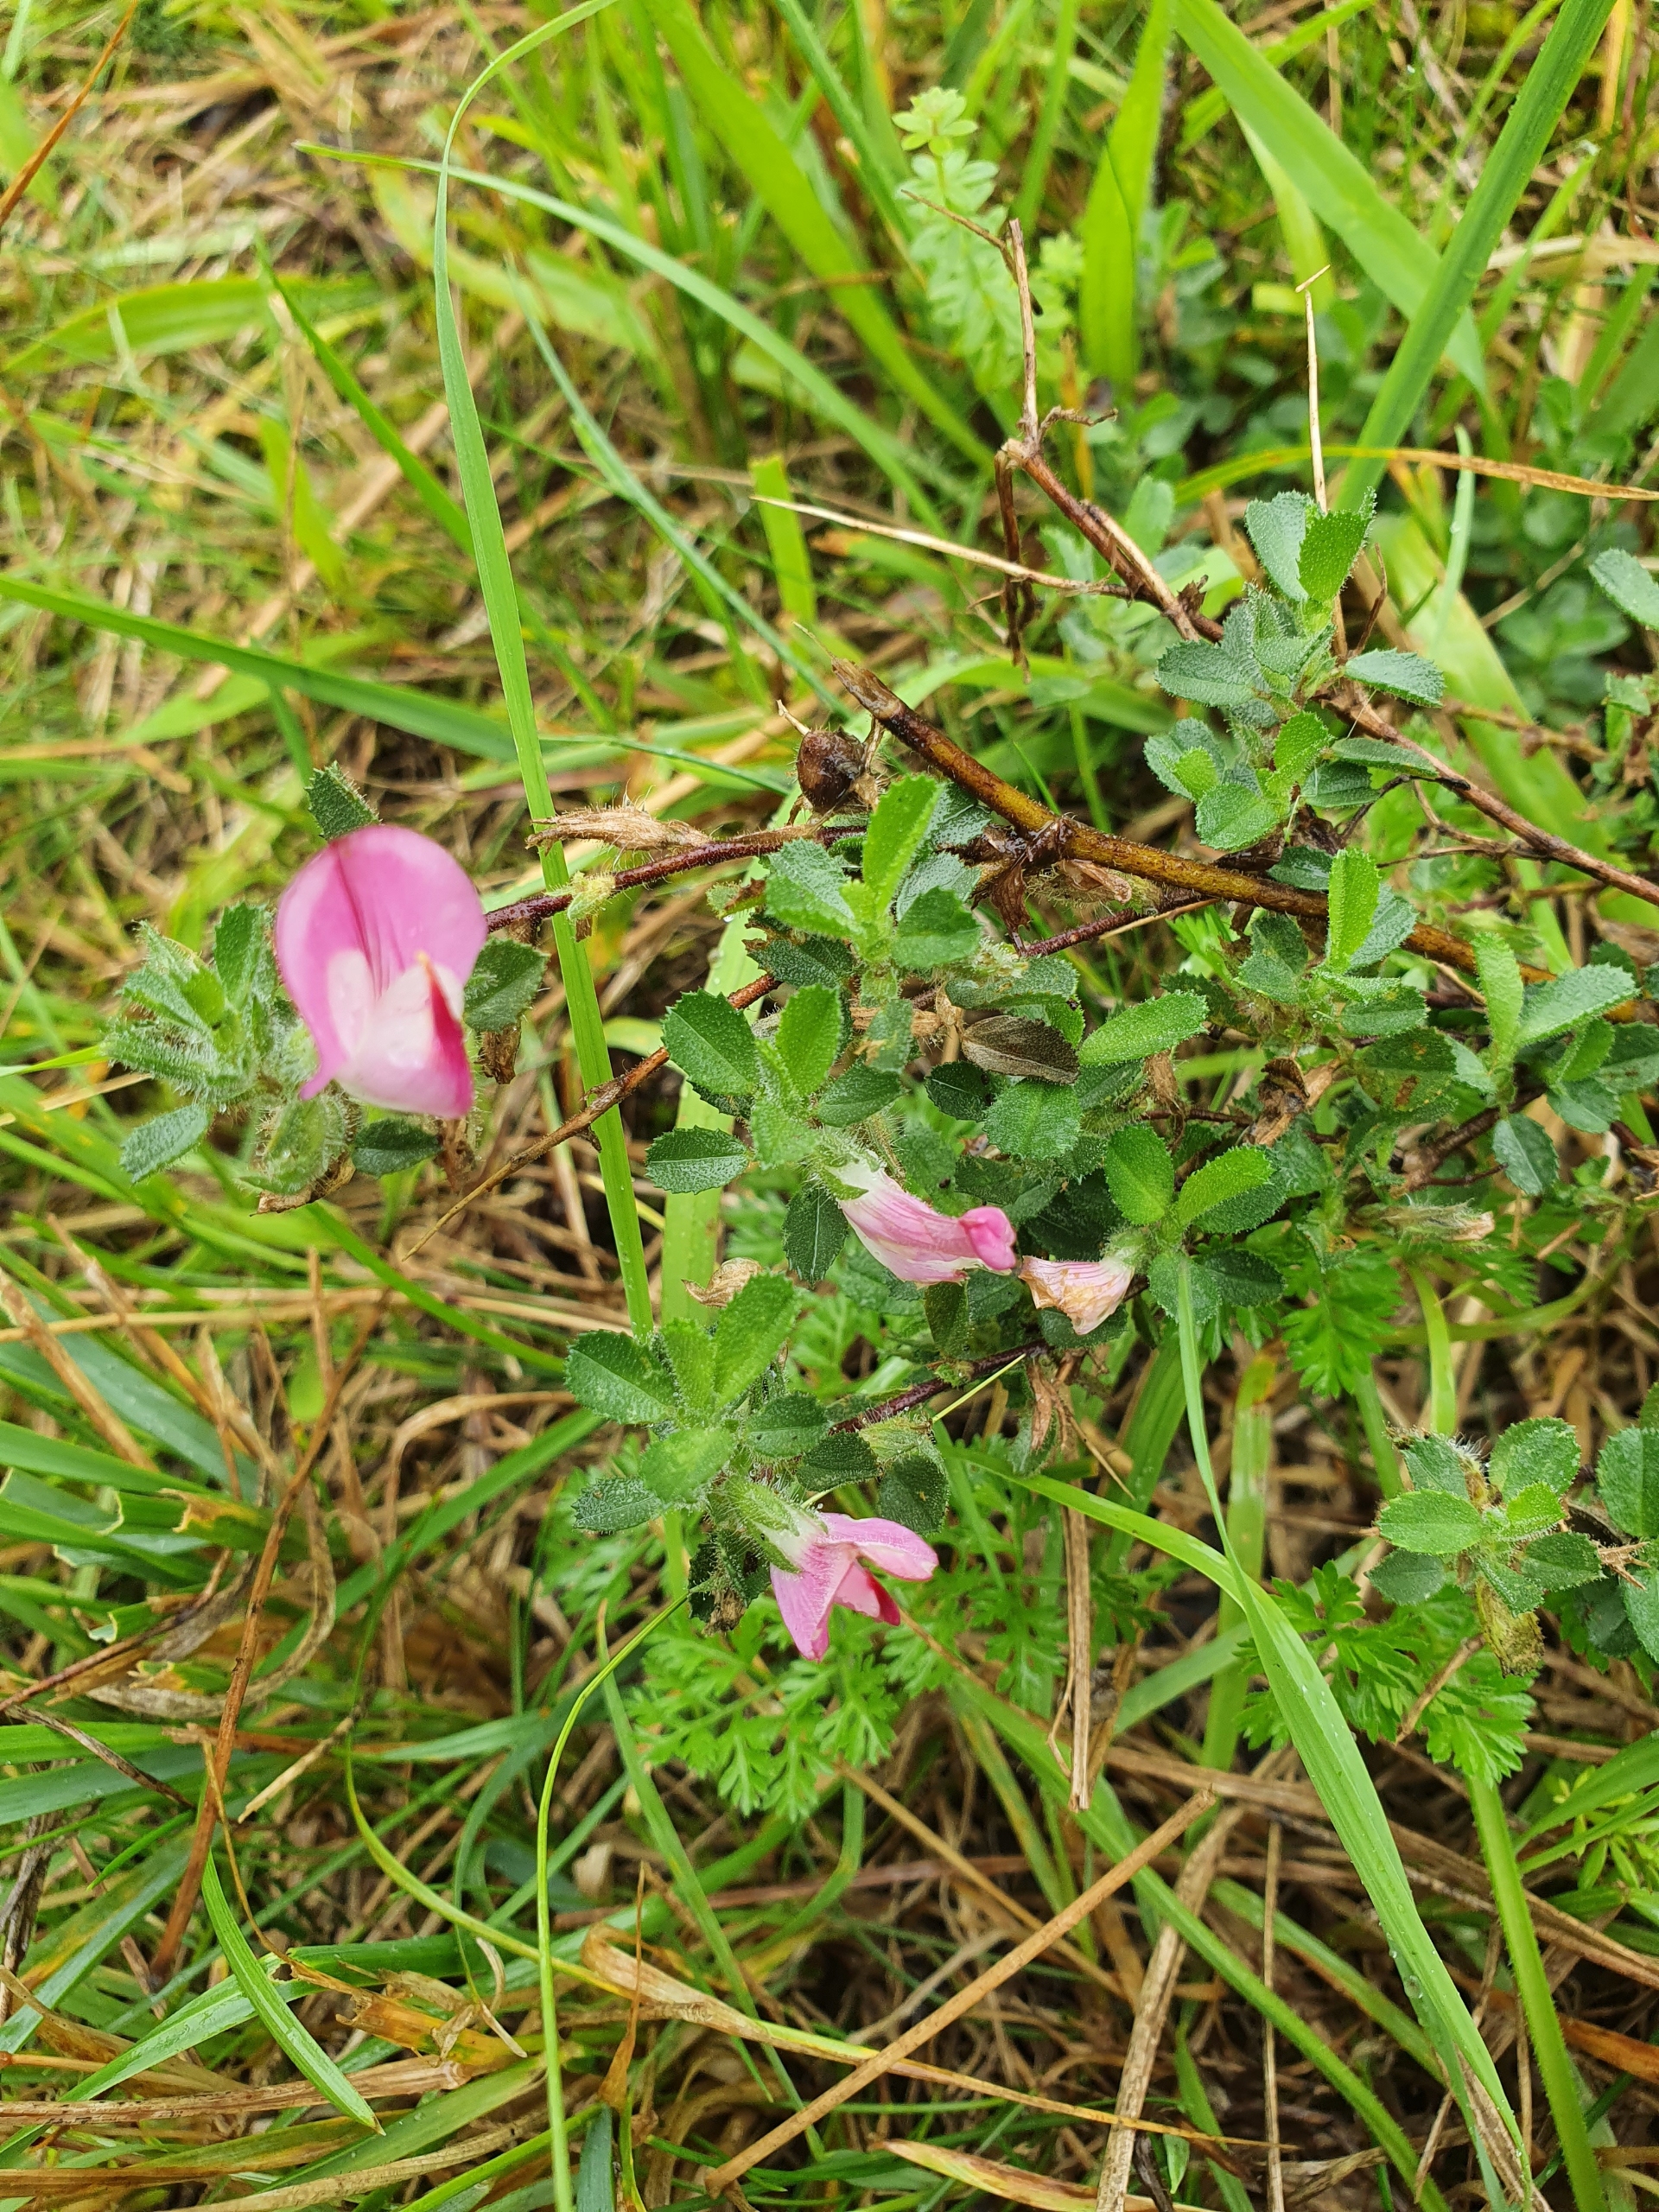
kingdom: Plantae
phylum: Tracheophyta
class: Magnoliopsida
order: Fabales
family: Fabaceae
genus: Ononis
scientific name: Ononis spinosa
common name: Mark-krageklo
